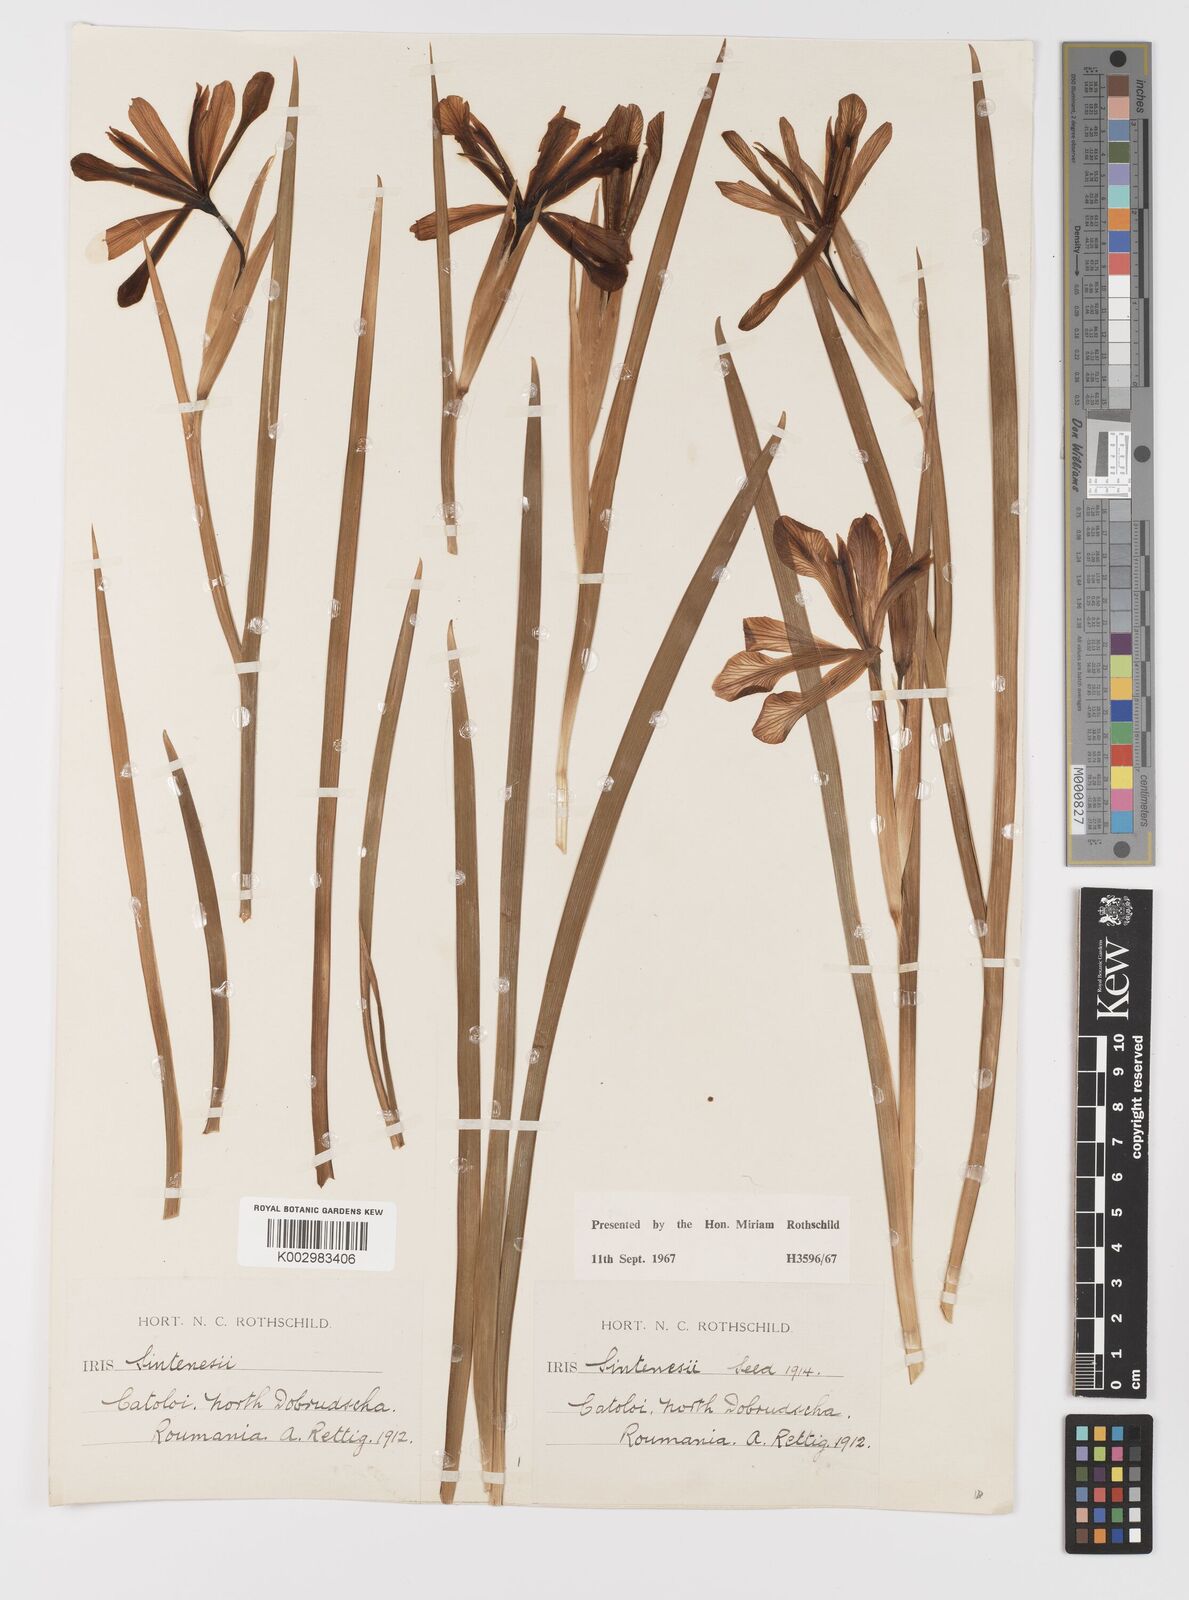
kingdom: Plantae
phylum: Tracheophyta
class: Liliopsida
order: Asparagales
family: Iridaceae
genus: Iris
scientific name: Iris sintenisii
